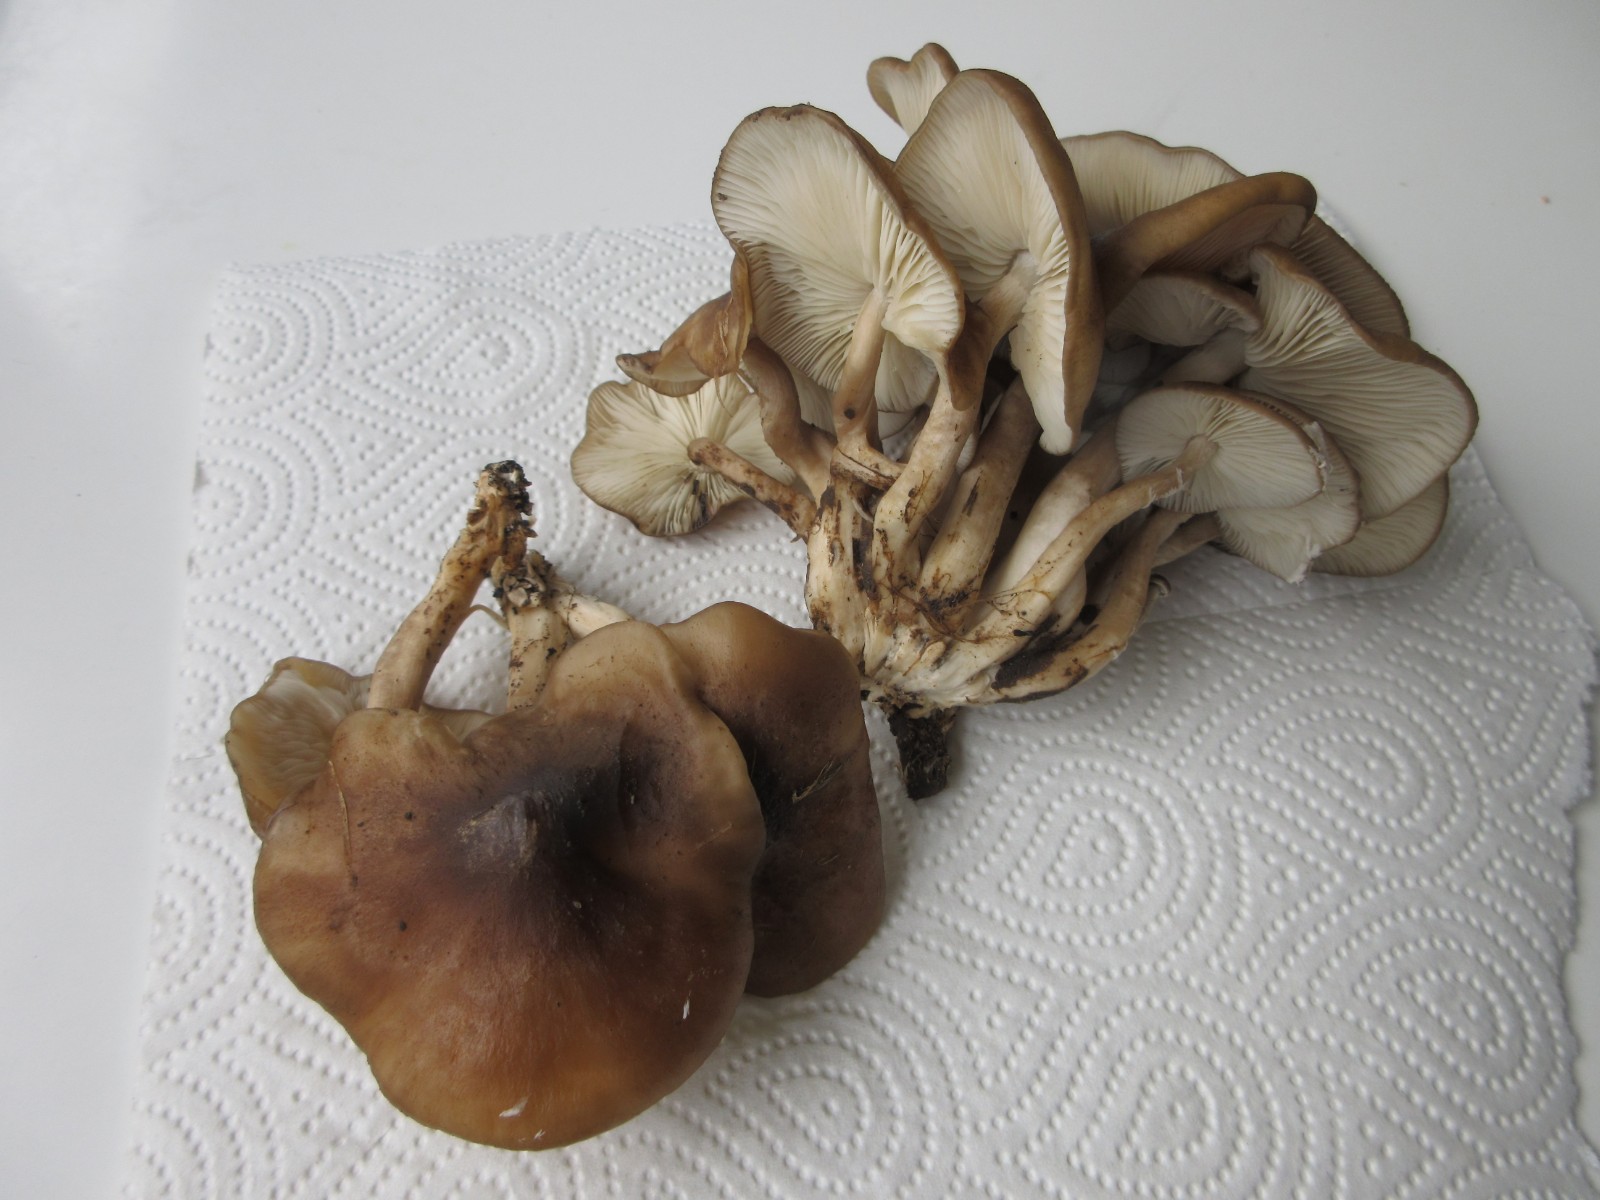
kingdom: Fungi
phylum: Basidiomycota
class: Agaricomycetes
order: Agaricales
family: Lyophyllaceae
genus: Lyophyllum
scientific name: Lyophyllum decastes
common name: røggrå gråblad
